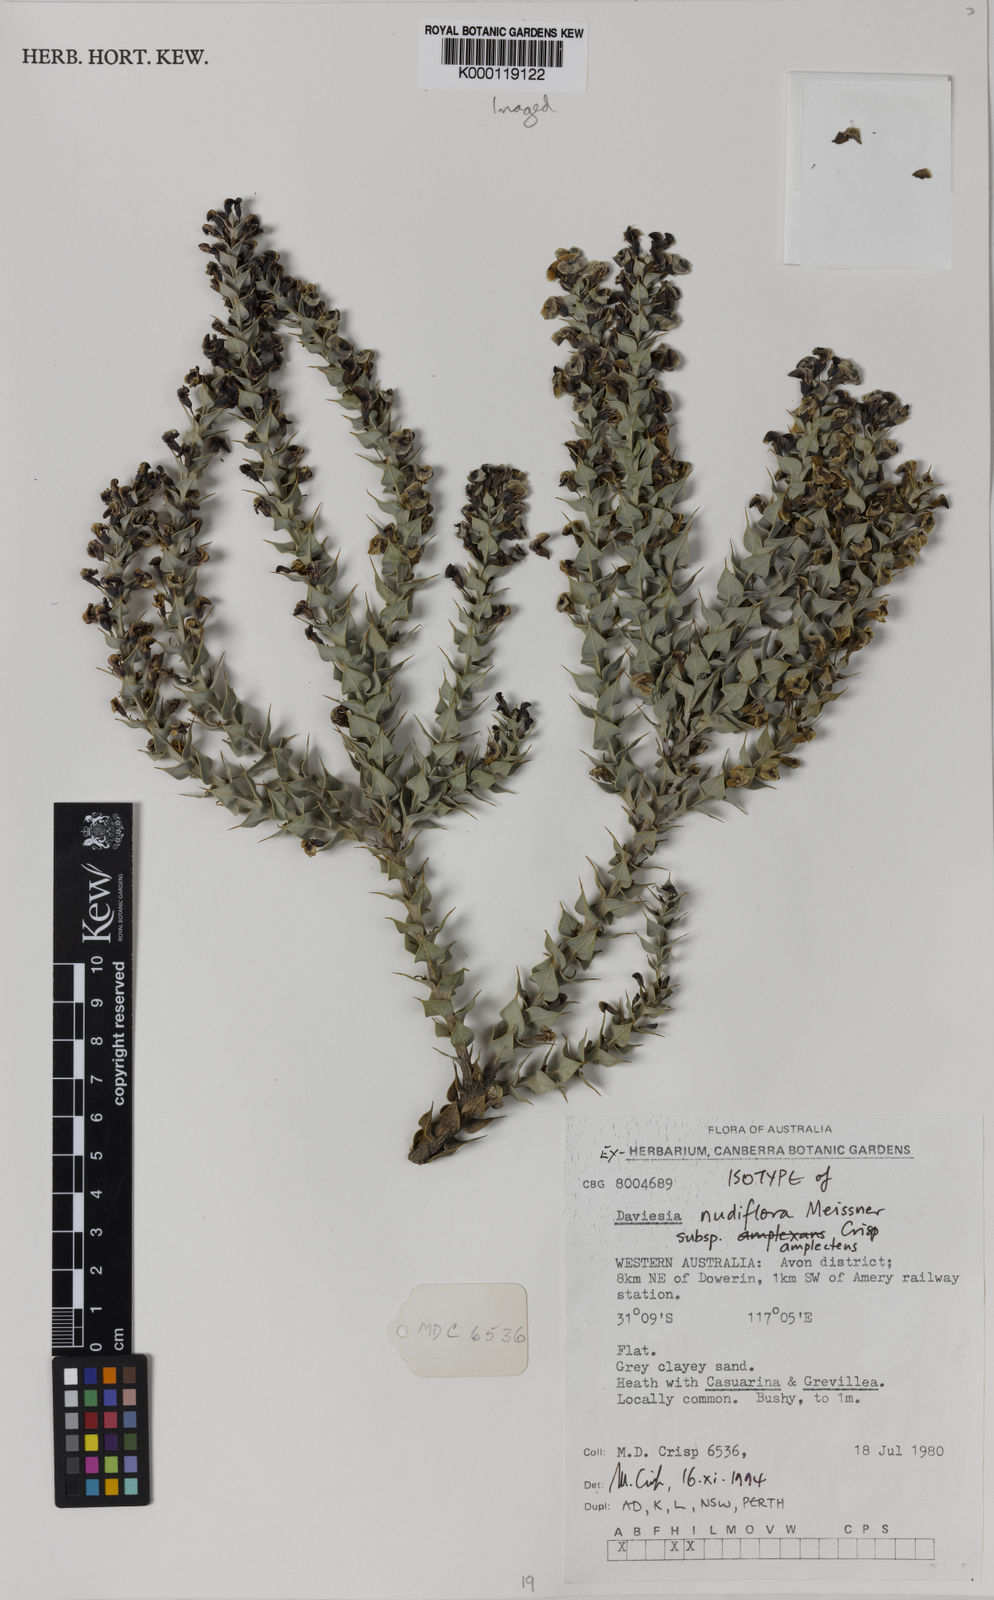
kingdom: Plantae
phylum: Tracheophyta
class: Magnoliopsida
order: Fabales
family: Fabaceae
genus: Daviesia
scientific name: Daviesia nudiflora
